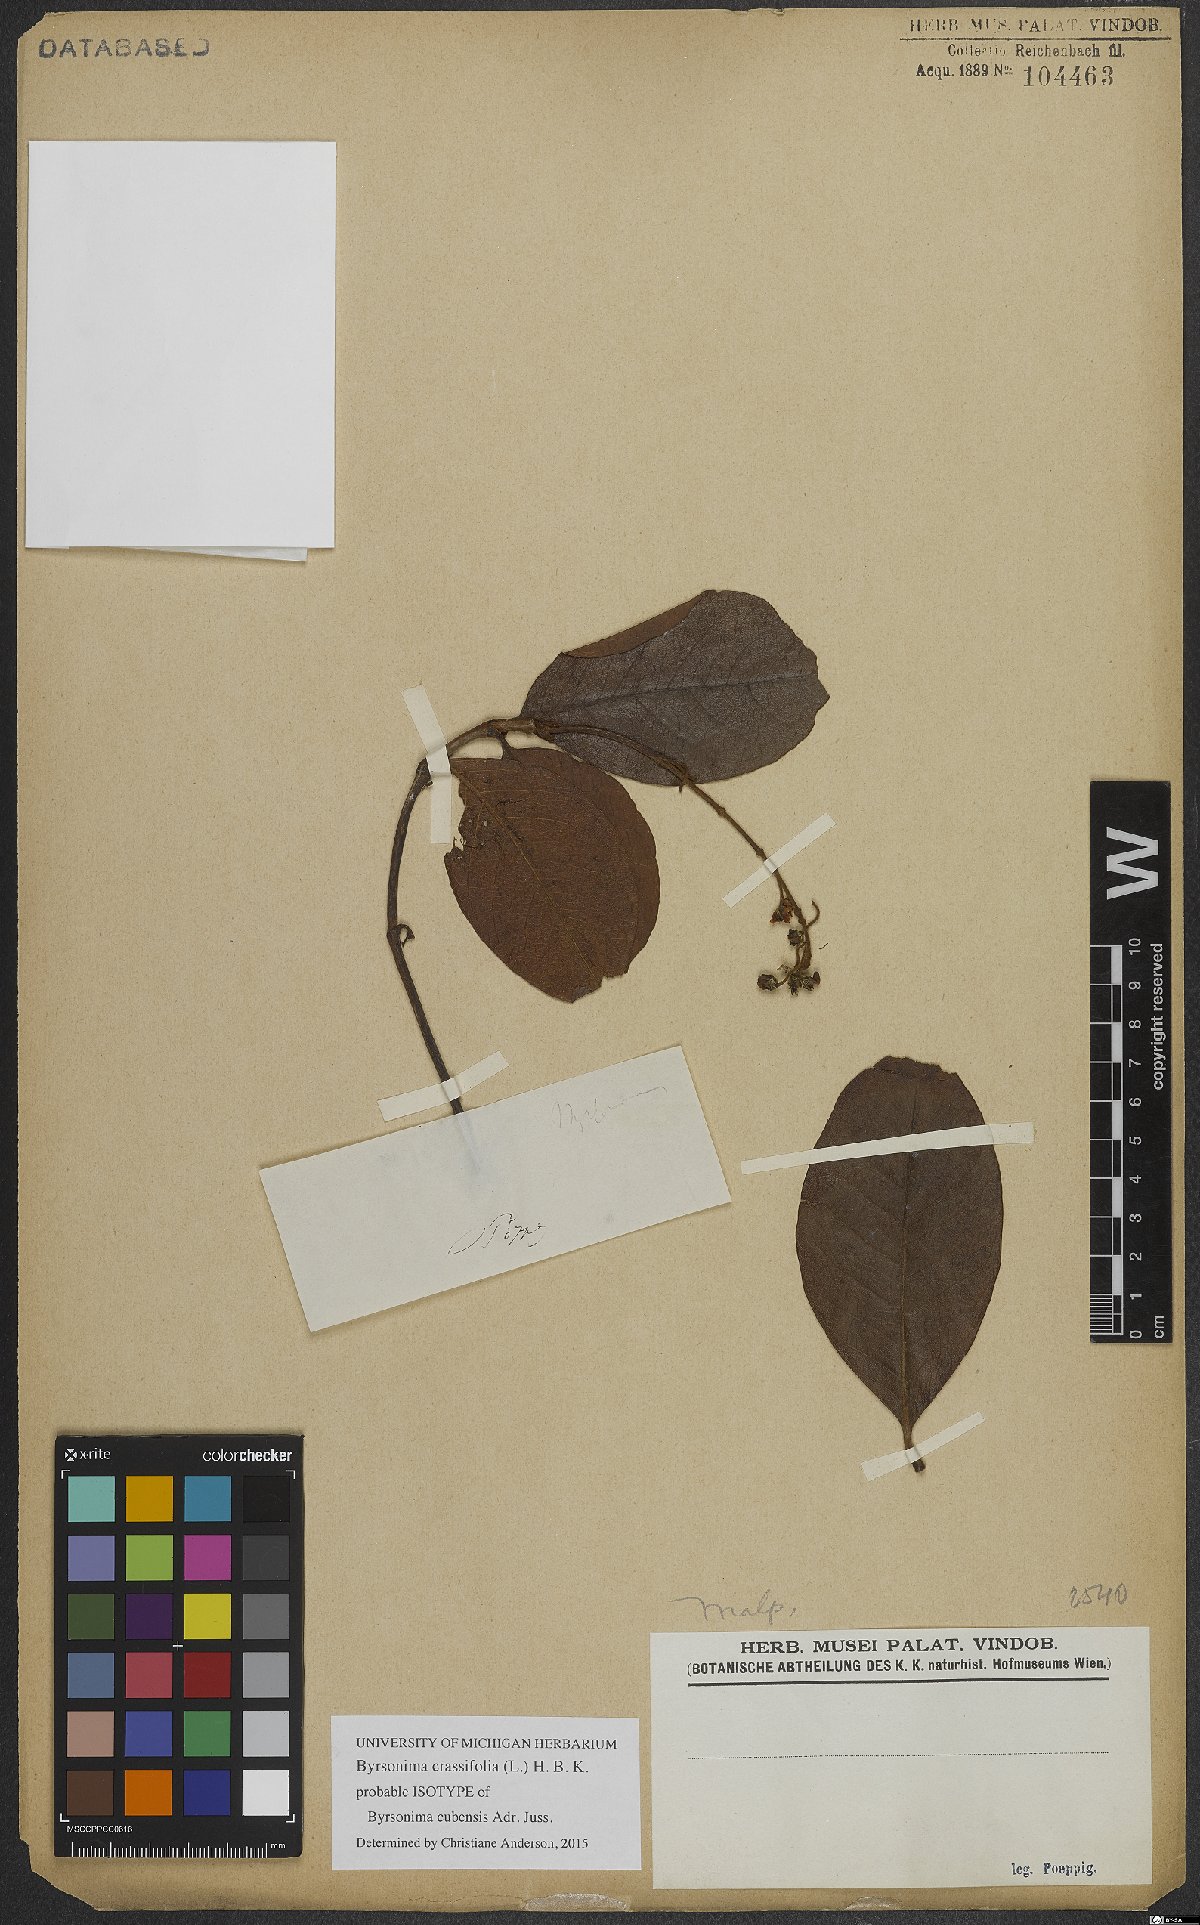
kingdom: Plantae
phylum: Tracheophyta
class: Magnoliopsida
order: Malpighiales
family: Malpighiaceae
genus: Byrsonima
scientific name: Byrsonima crassifolia
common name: Golden spoon
